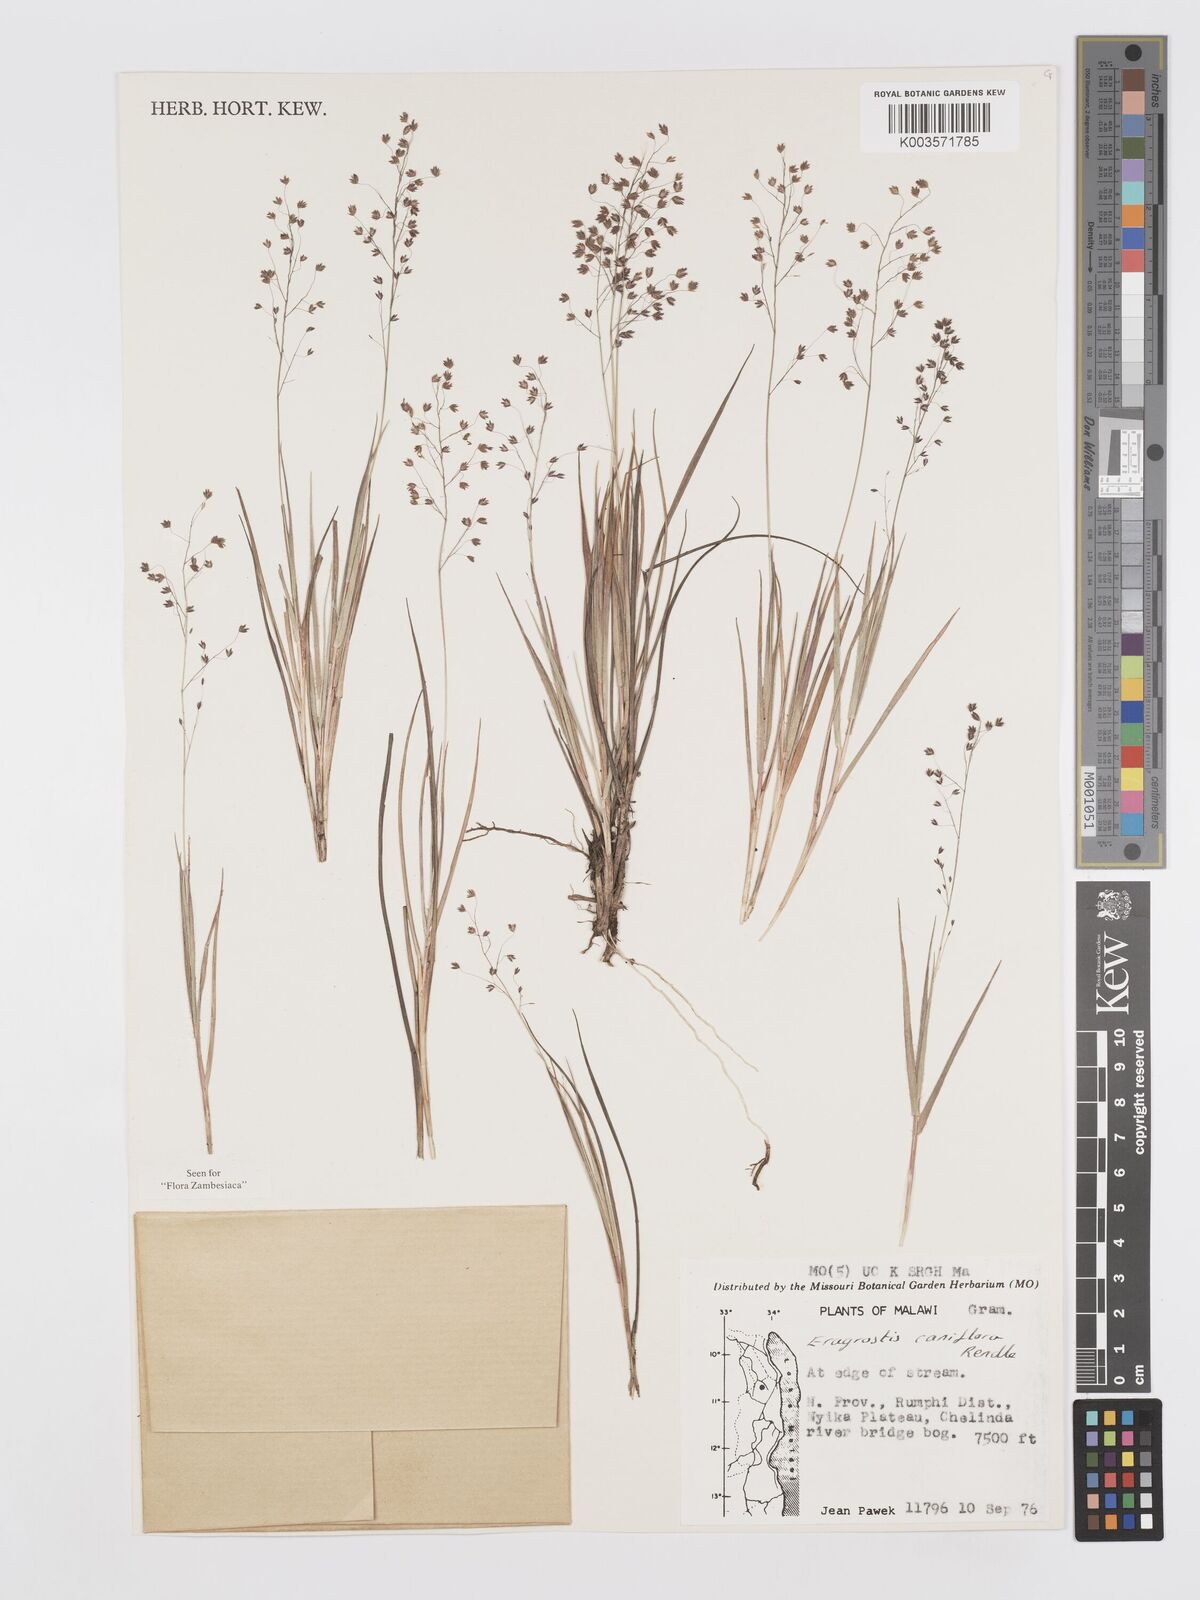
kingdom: Plantae
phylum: Tracheophyta
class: Liliopsida
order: Poales
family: Poaceae
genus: Eragrostis
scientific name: Eragrostis caniflora
